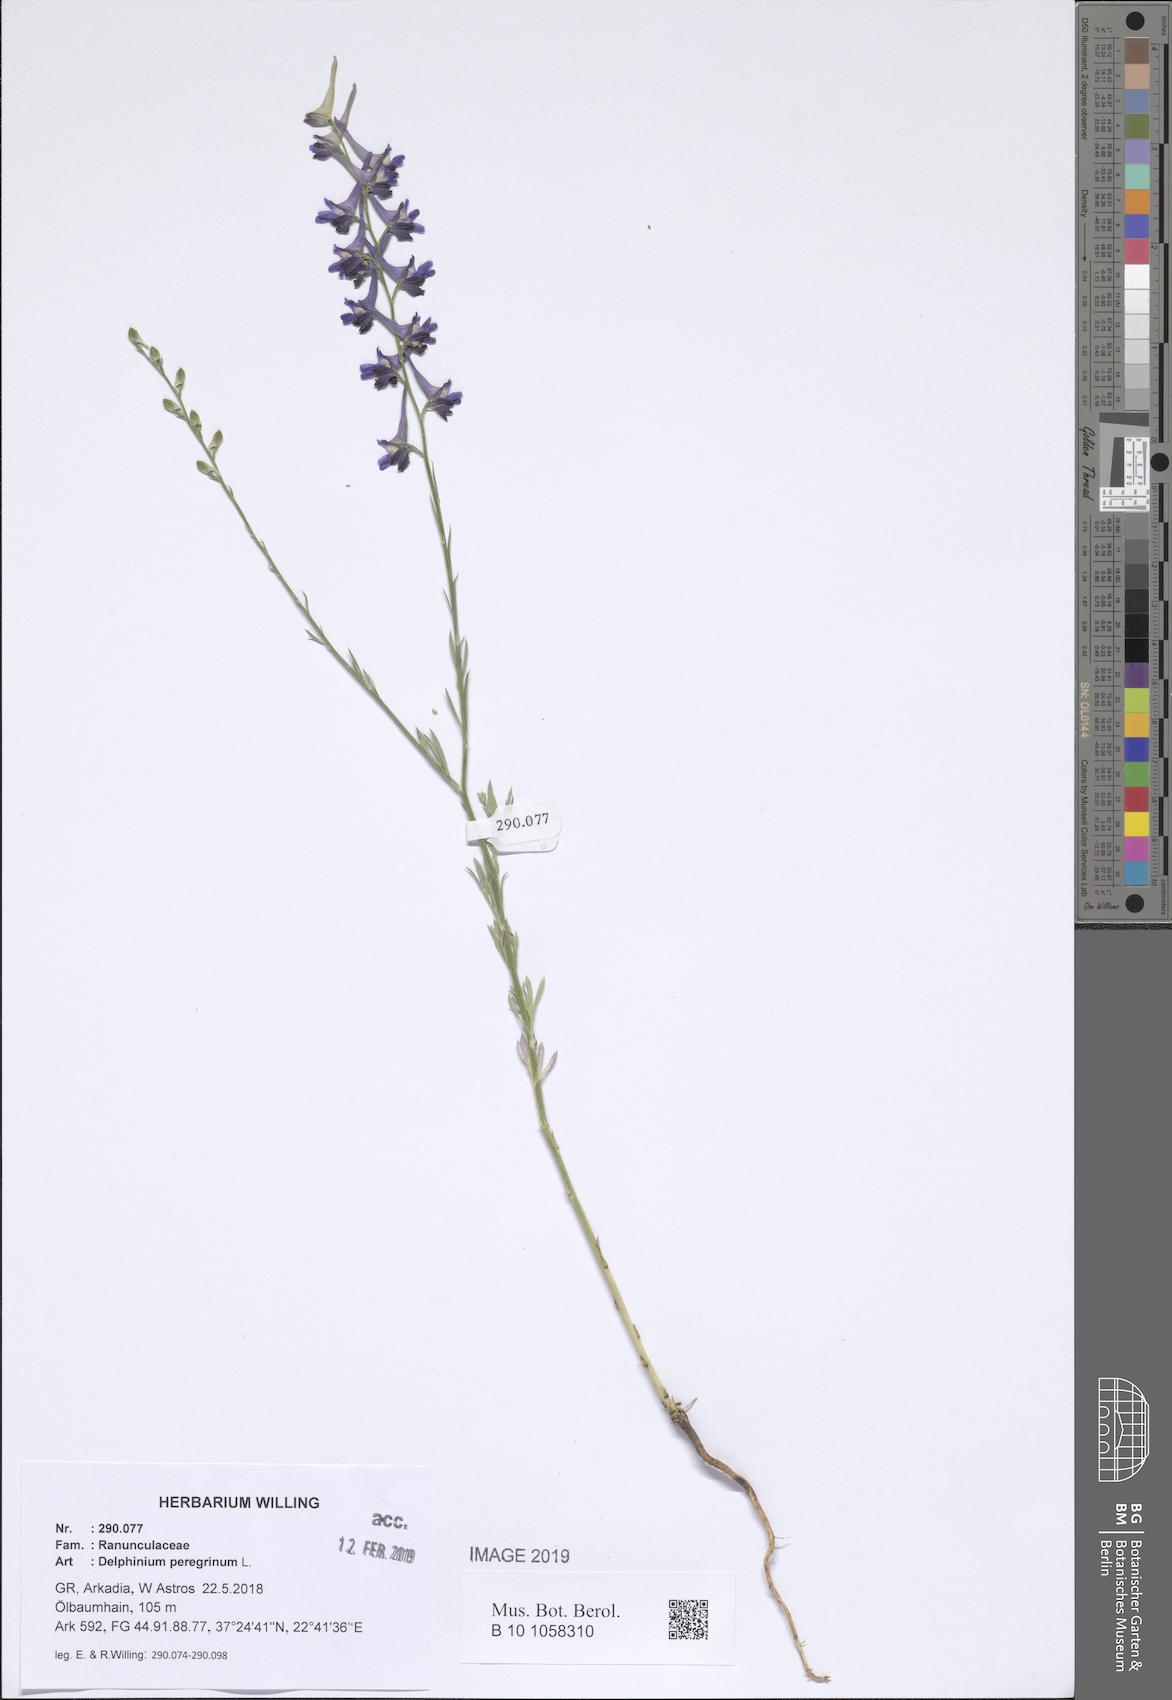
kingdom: Plantae
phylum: Tracheophyta
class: Magnoliopsida
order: Ranunculales
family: Ranunculaceae
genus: Delphinium
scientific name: Delphinium peregrinum
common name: Violet larkspur
